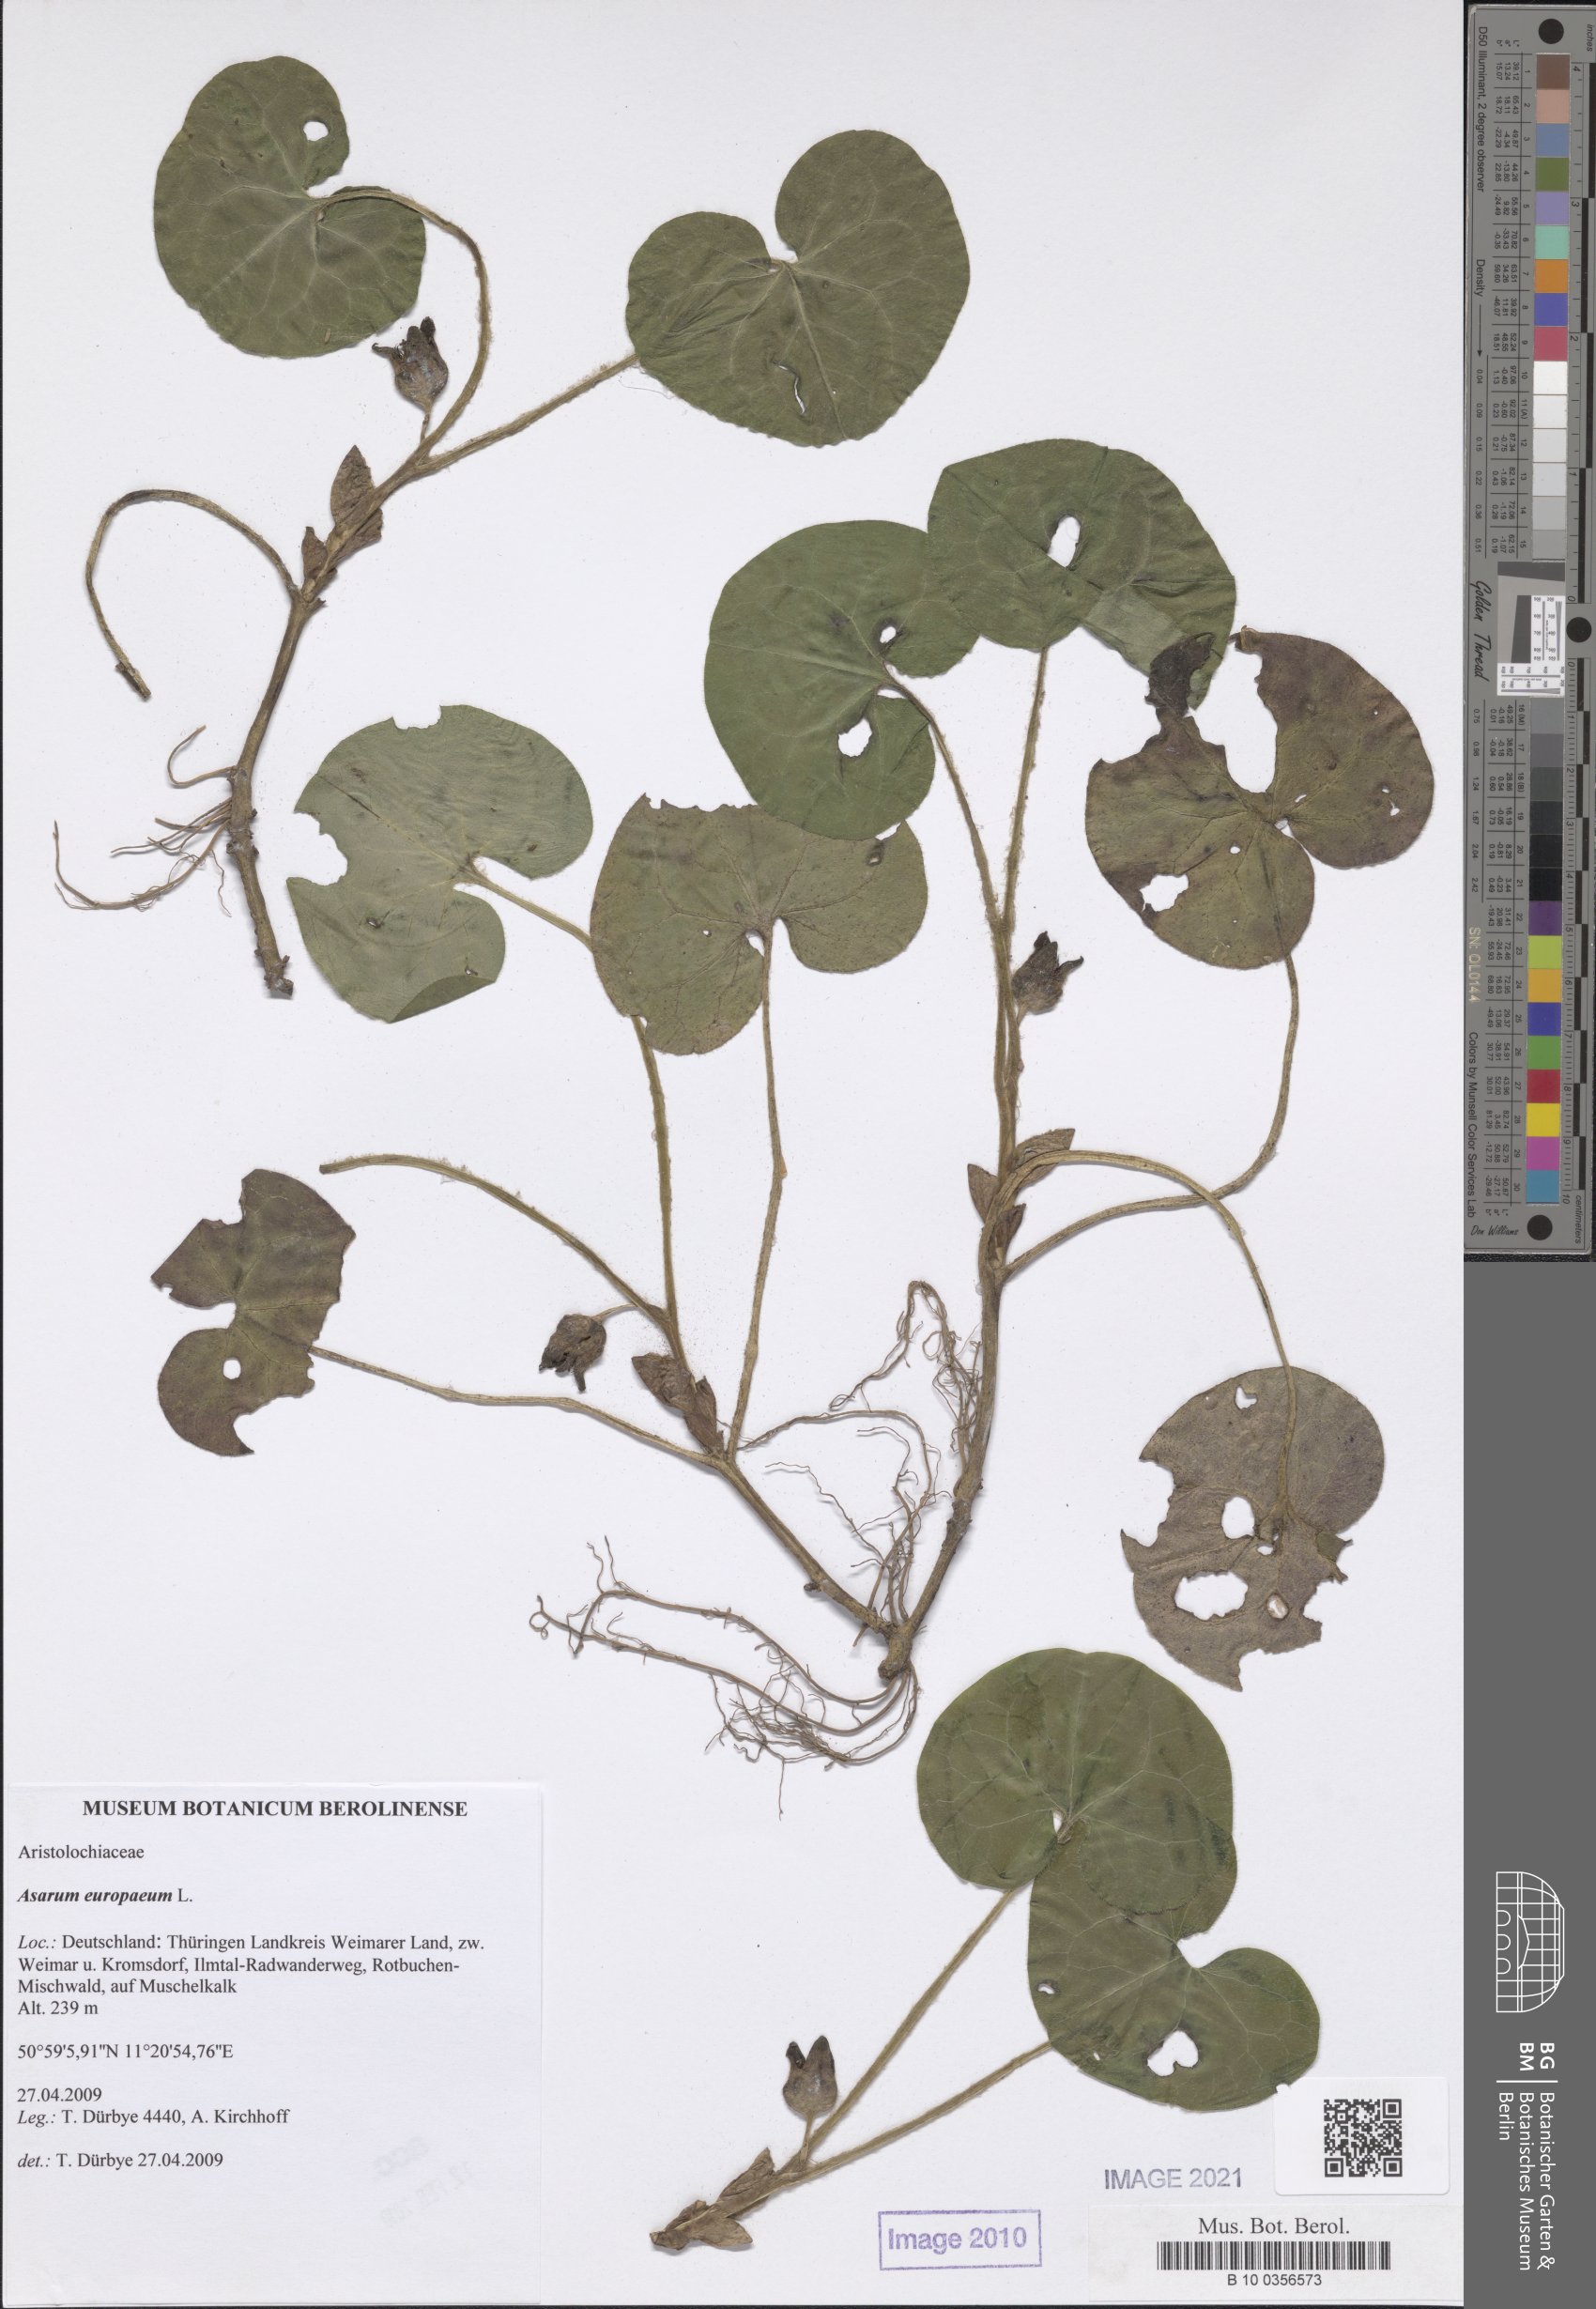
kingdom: Plantae
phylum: Tracheophyta
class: Magnoliopsida
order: Piperales
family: Aristolochiaceae
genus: Asarum
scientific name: Asarum europaeum
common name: Asarabacca
